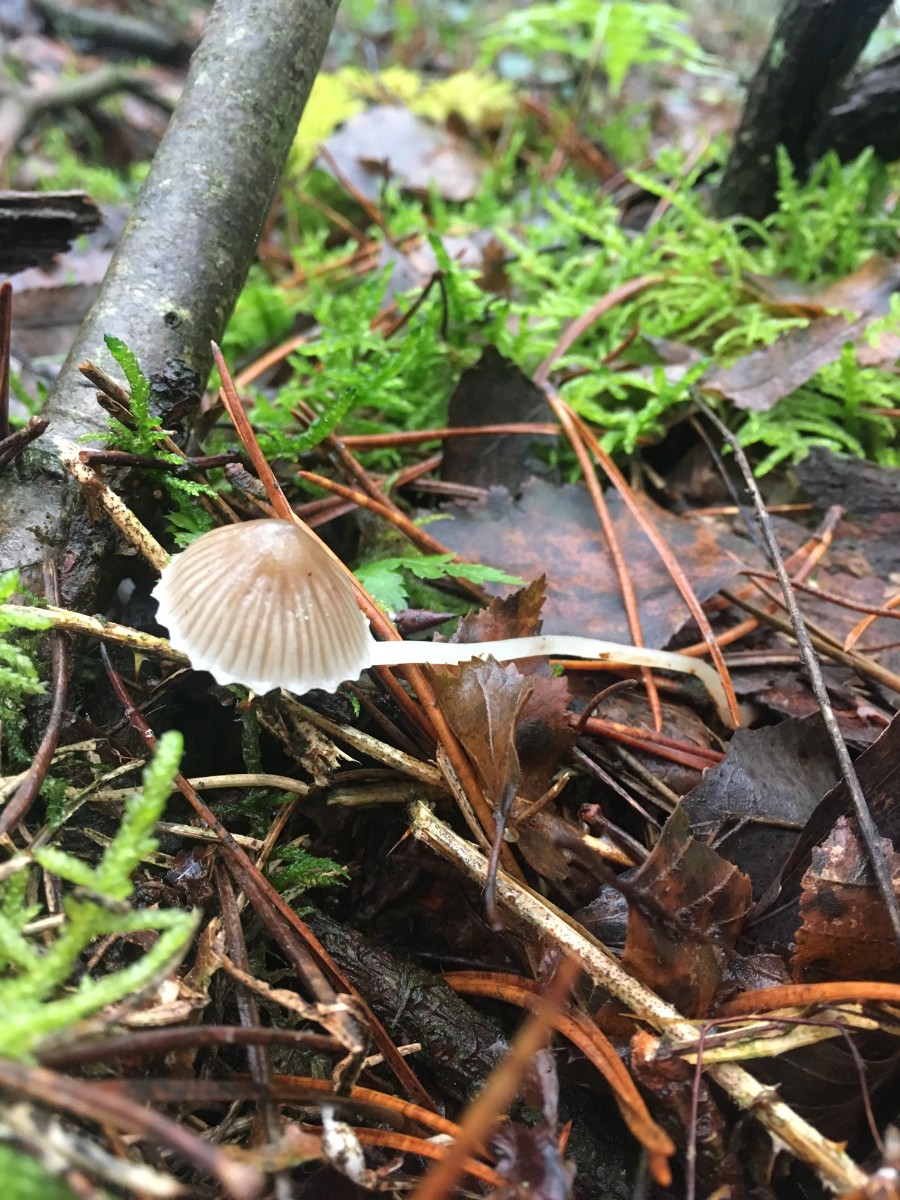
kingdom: Fungi
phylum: Basidiomycota
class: Agaricomycetes
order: Agaricales
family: Mycenaceae
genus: Mycena
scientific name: Mycena
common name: huesvamp
